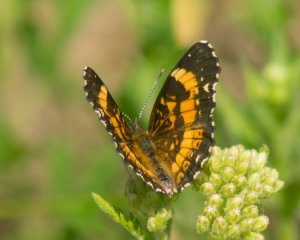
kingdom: Animalia
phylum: Arthropoda
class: Insecta
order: Lepidoptera
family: Nymphalidae
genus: Chlosyne
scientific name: Chlosyne nycteis
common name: Silvery Checkerspot
